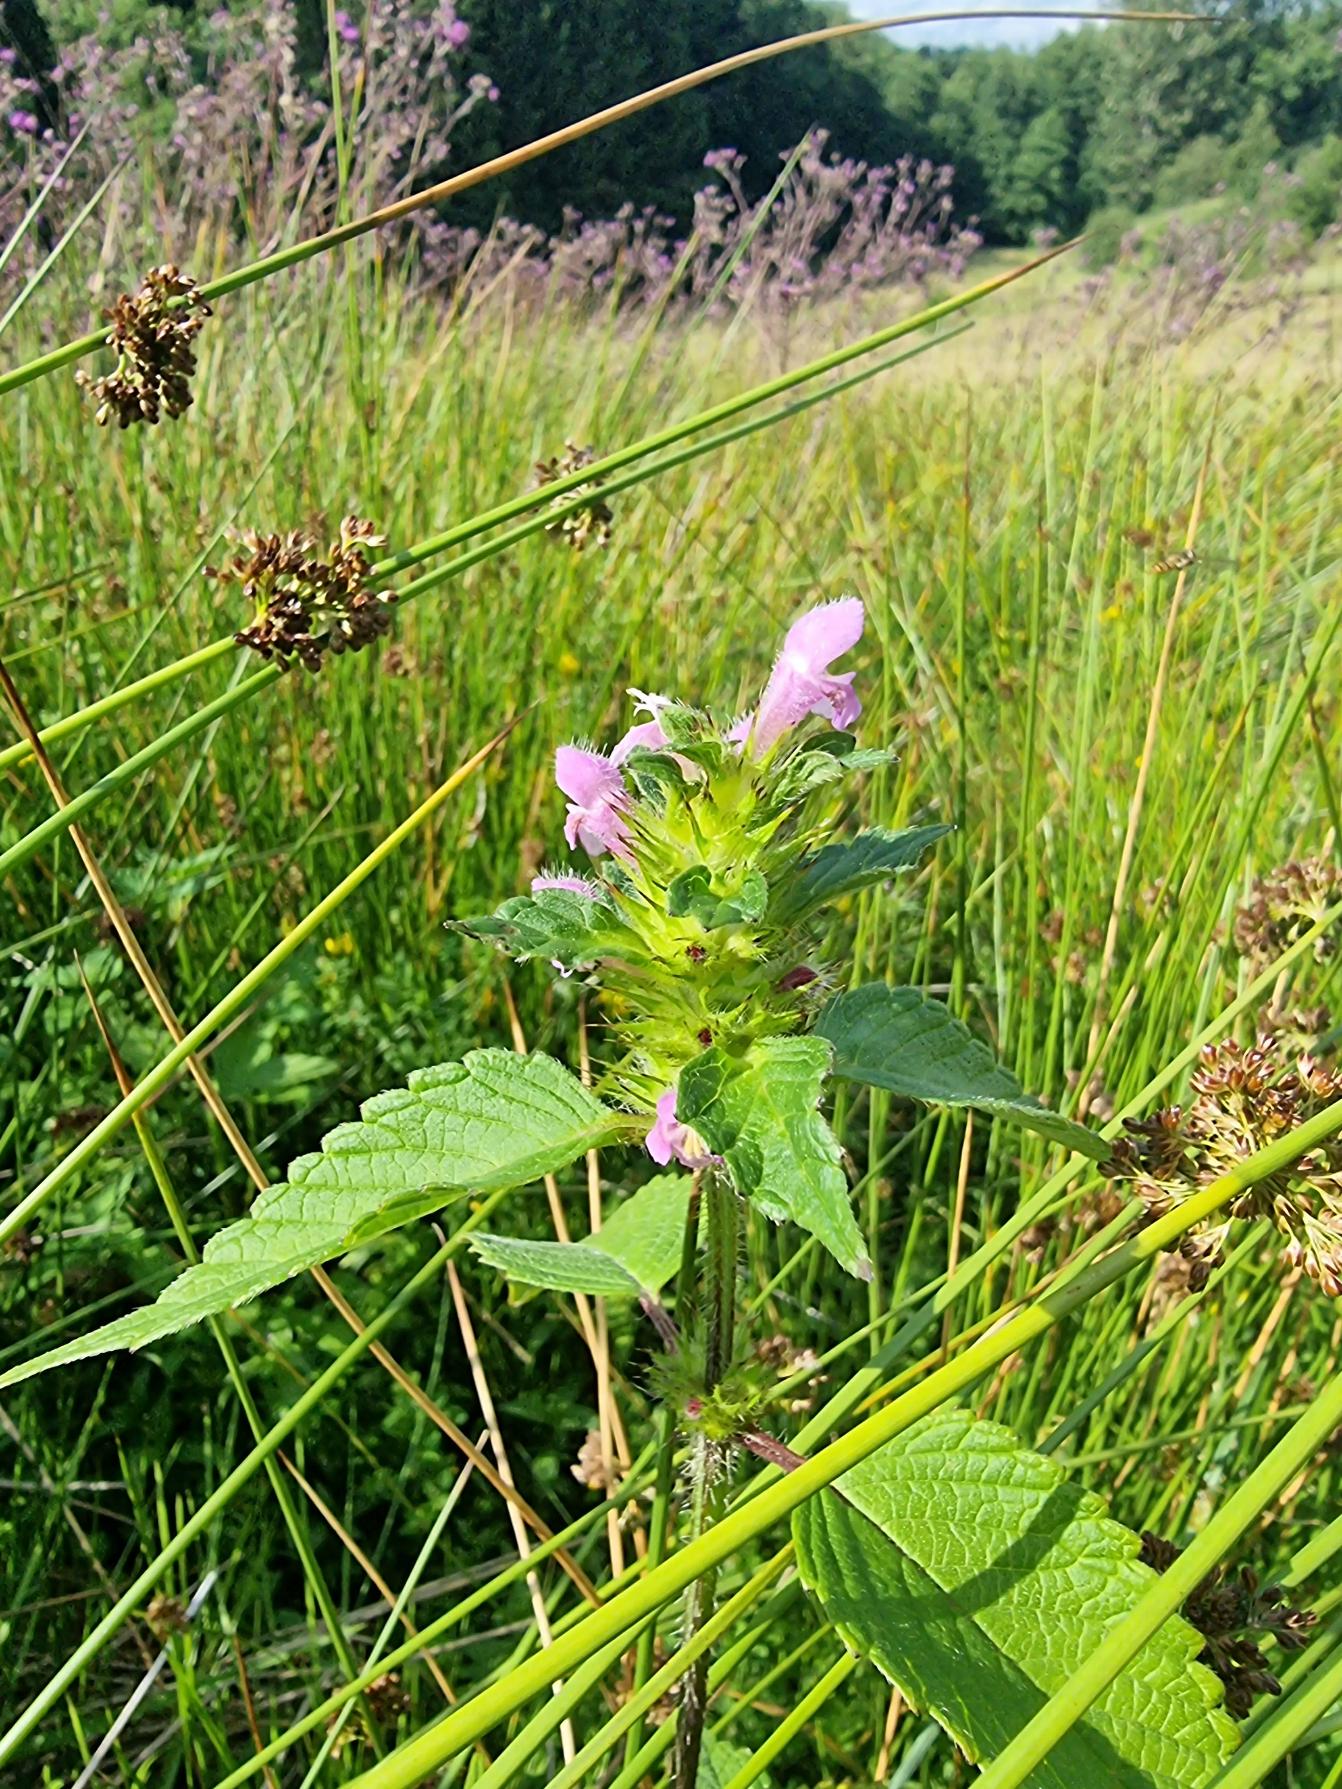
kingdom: Plantae
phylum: Tracheophyta
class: Magnoliopsida
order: Lamiales
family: Lamiaceae
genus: Galeopsis
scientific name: Galeopsis tetrahit
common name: Almindelig hanekro
